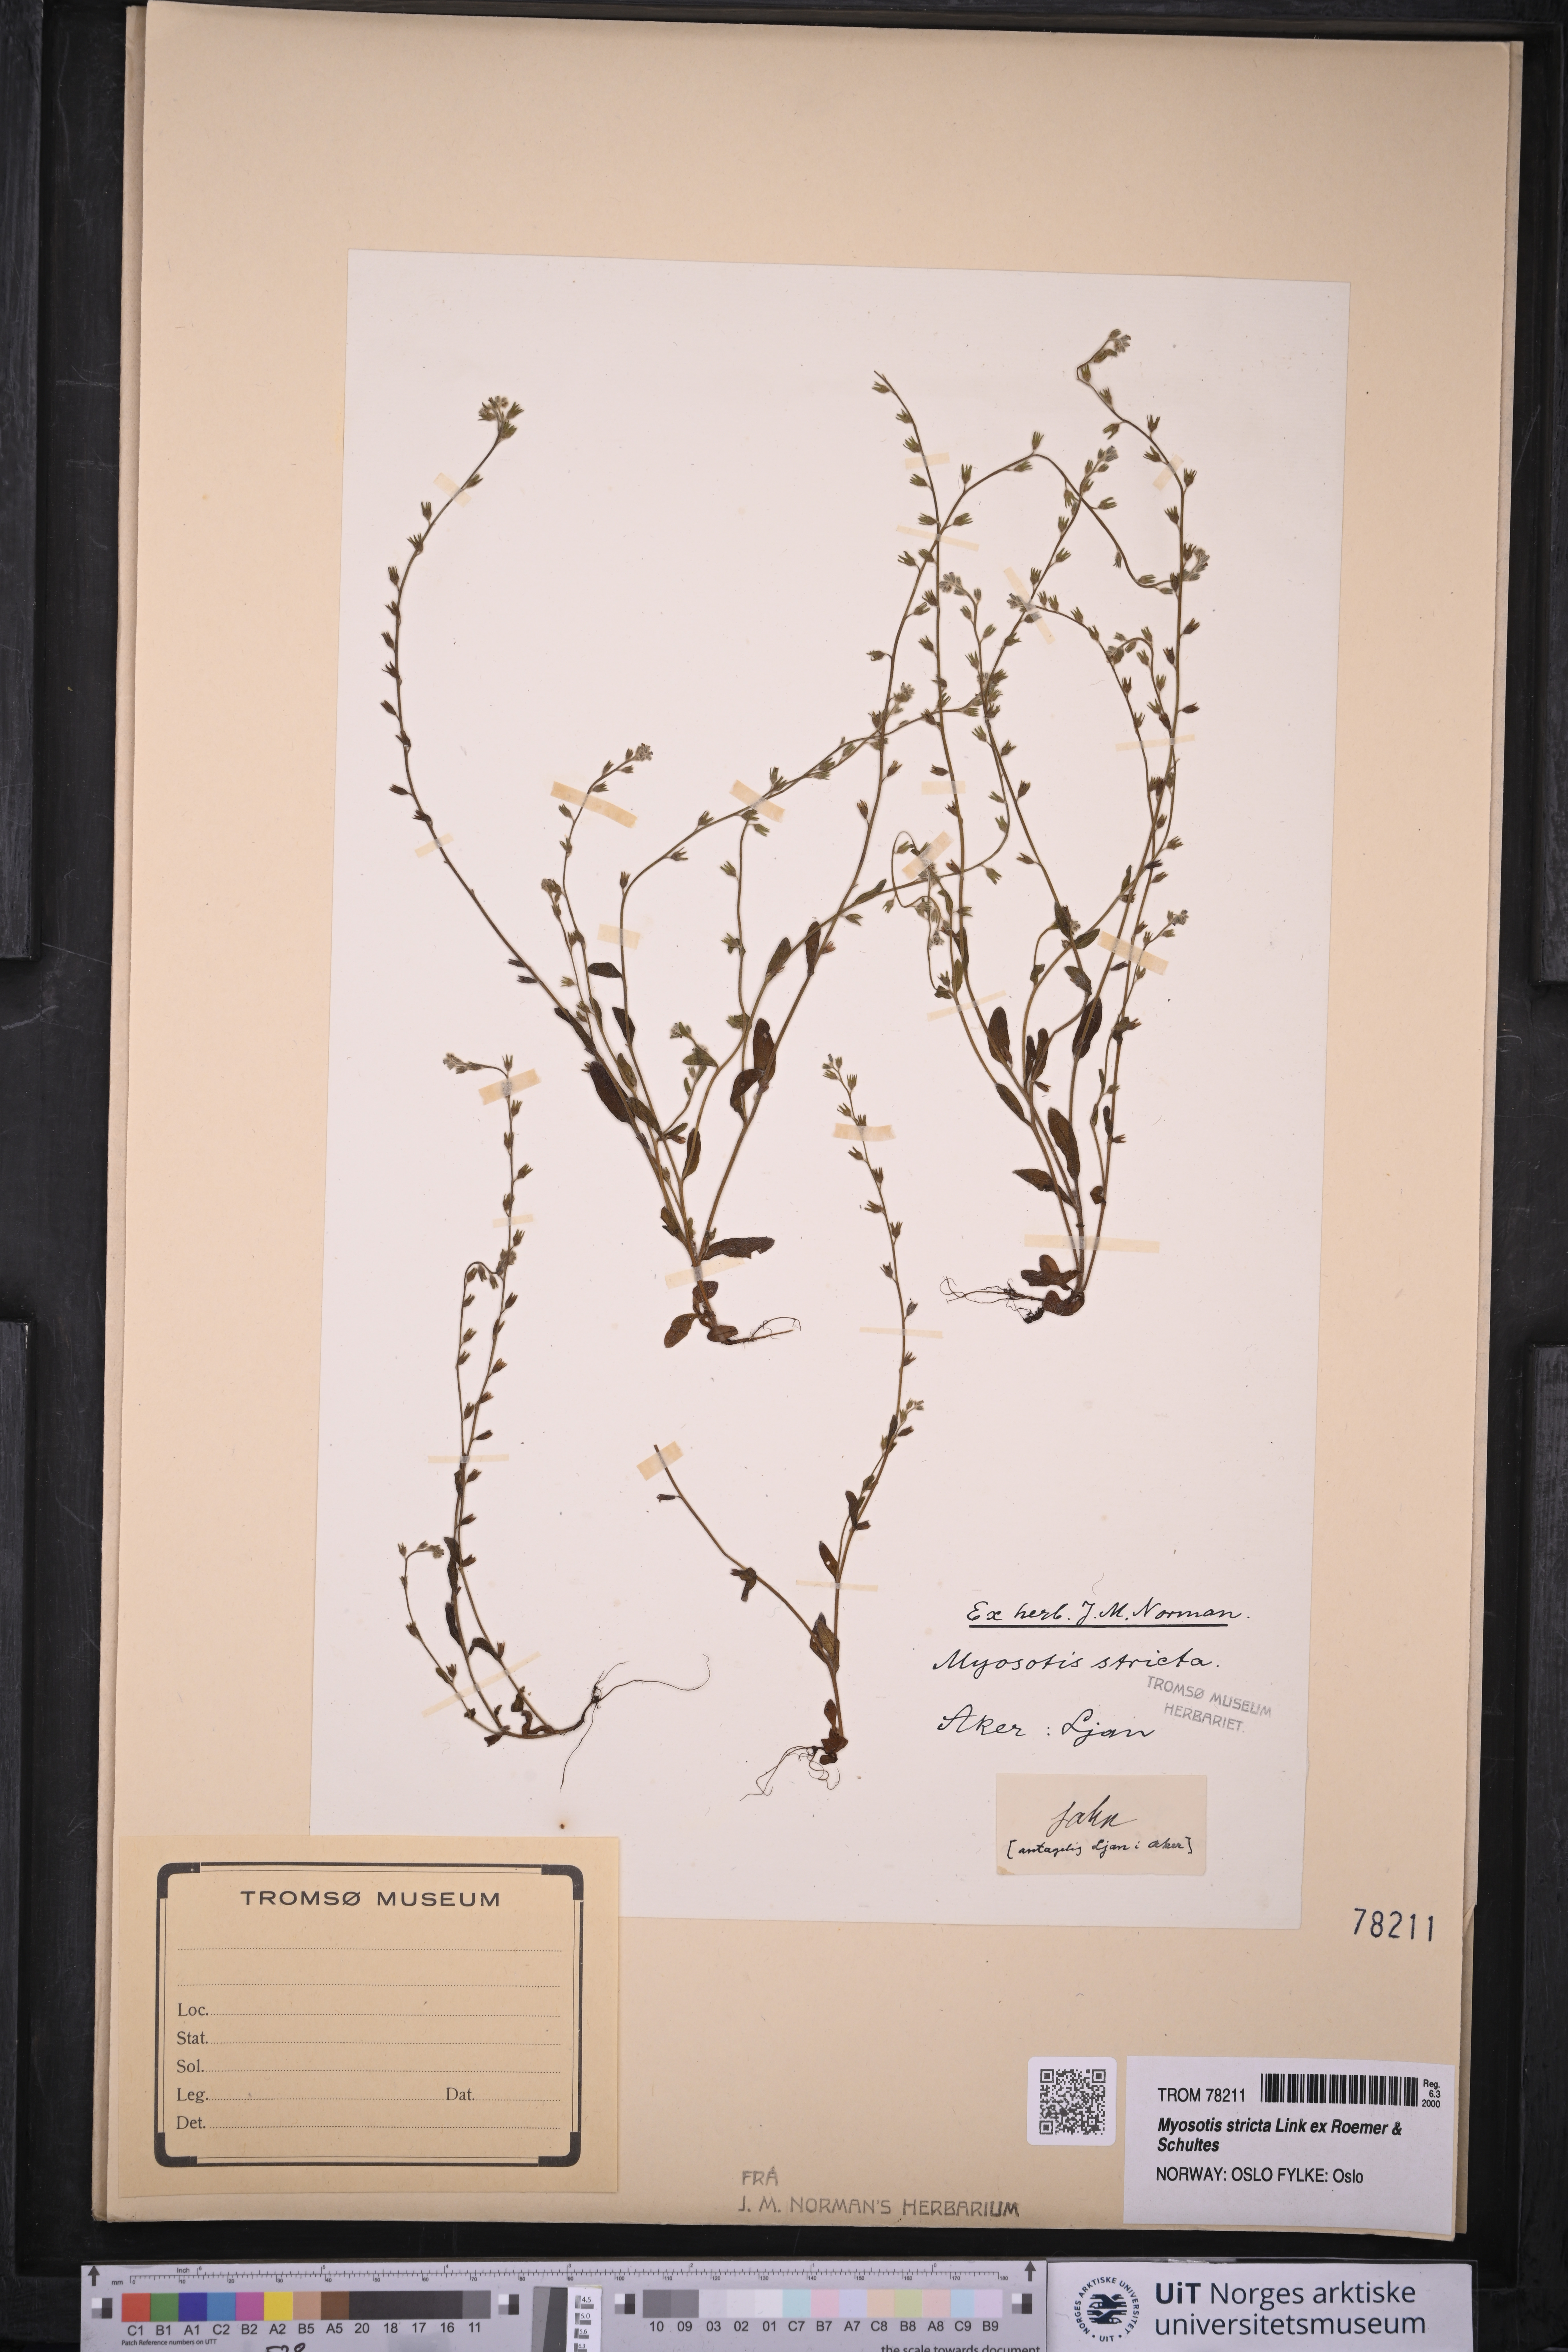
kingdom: Plantae
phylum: Tracheophyta
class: Magnoliopsida
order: Boraginales
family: Boraginaceae
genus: Myosotis
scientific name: Myosotis stricta
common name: Strict forget-me-not
